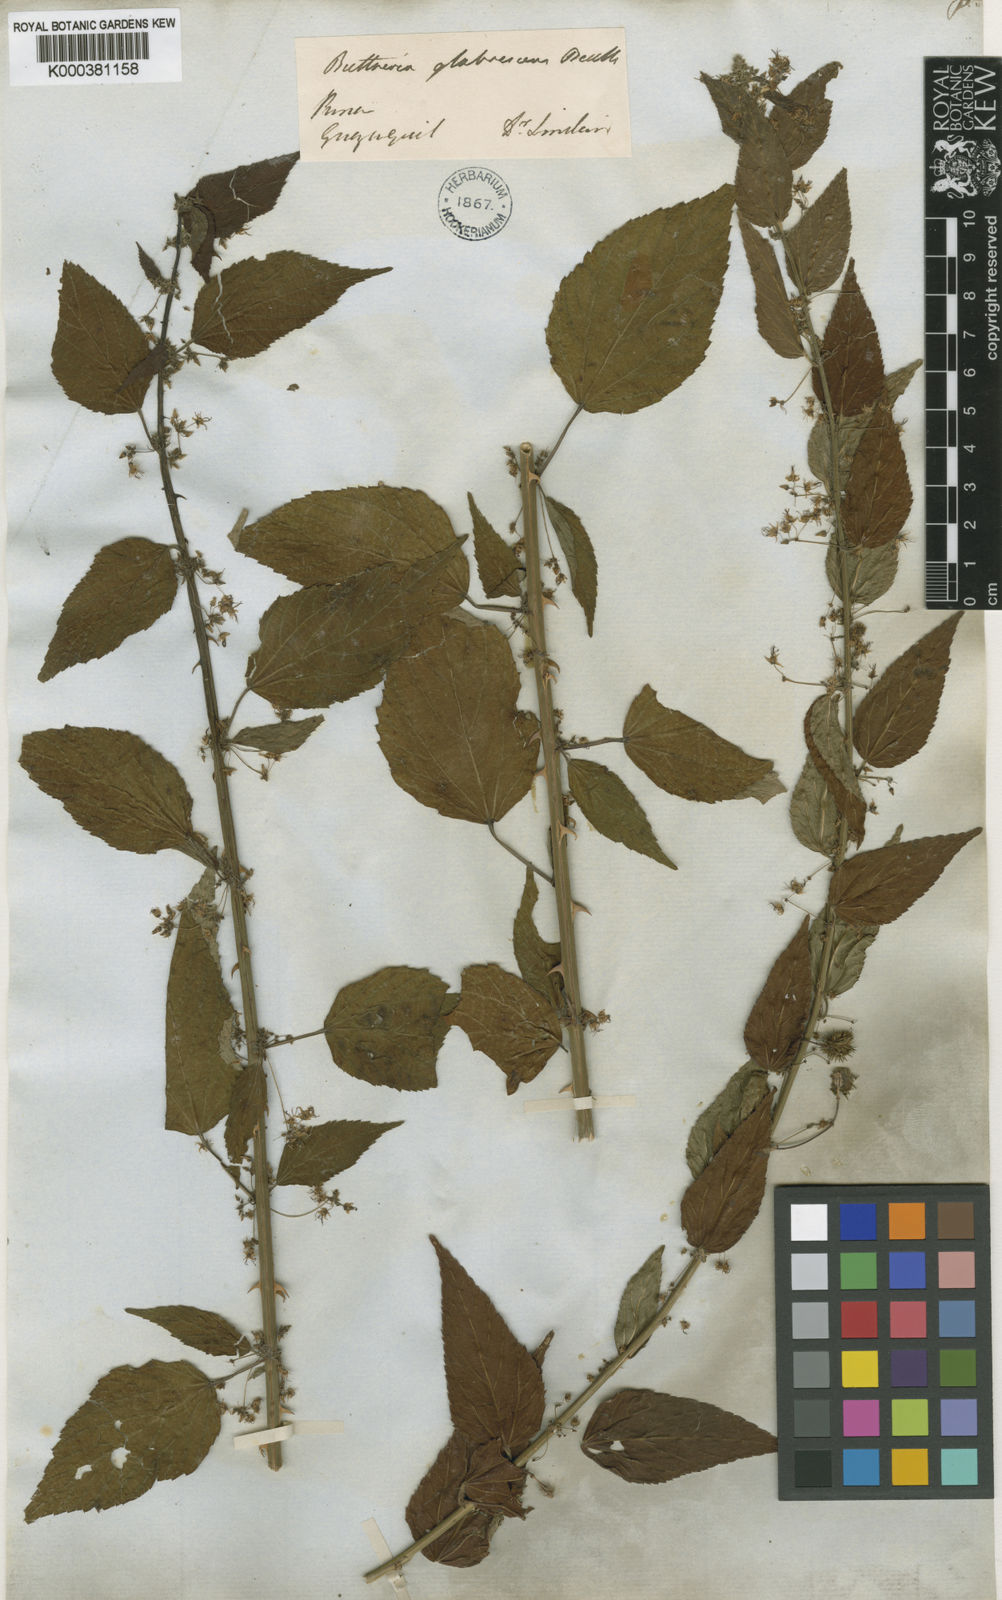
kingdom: Plantae
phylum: Tracheophyta
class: Magnoliopsida
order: Malvales
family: Malvaceae
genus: Byttneria
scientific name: Byttneria corchorifolia
